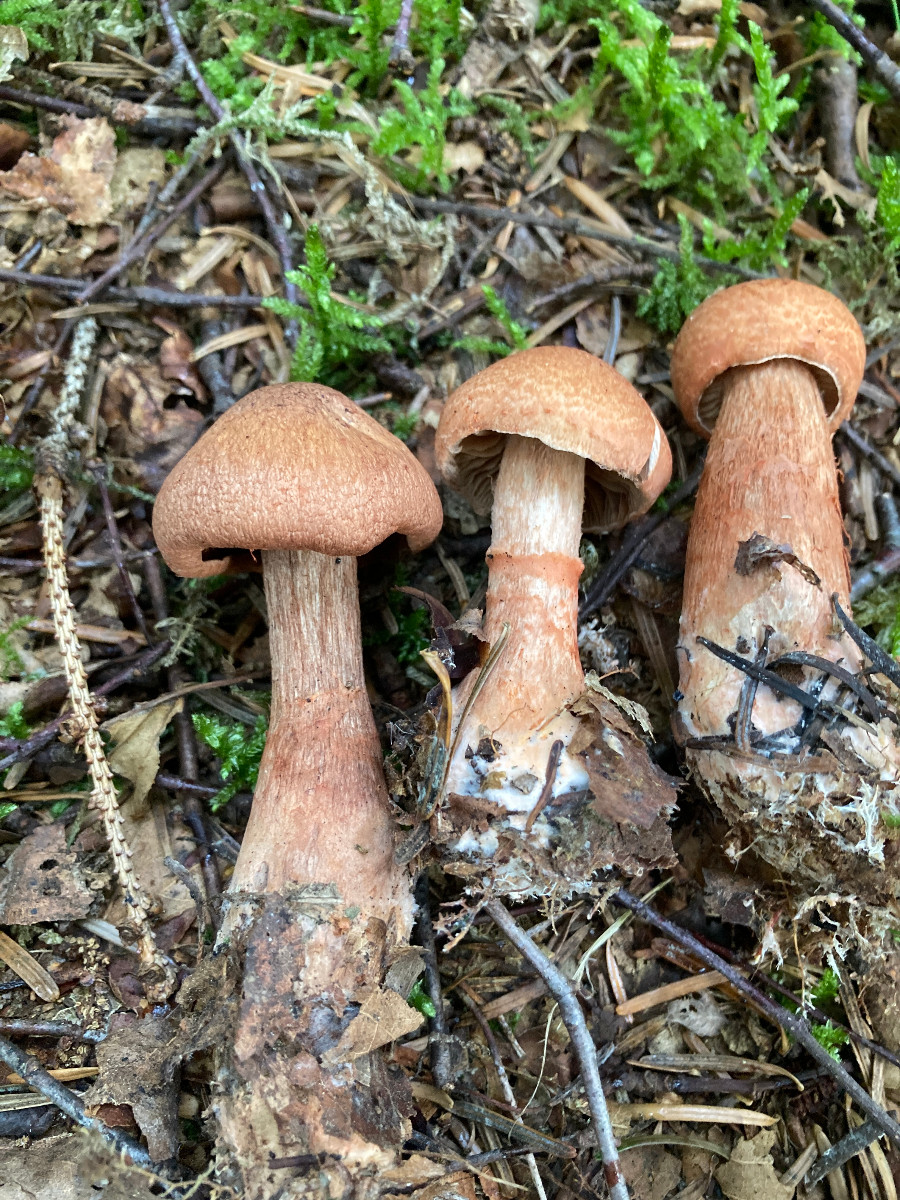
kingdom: Fungi
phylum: Basidiomycota
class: Agaricomycetes
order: Agaricales
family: Cortinariaceae
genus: Cortinarius
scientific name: Cortinarius armillatus
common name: cinnoberbæltet slørhat
